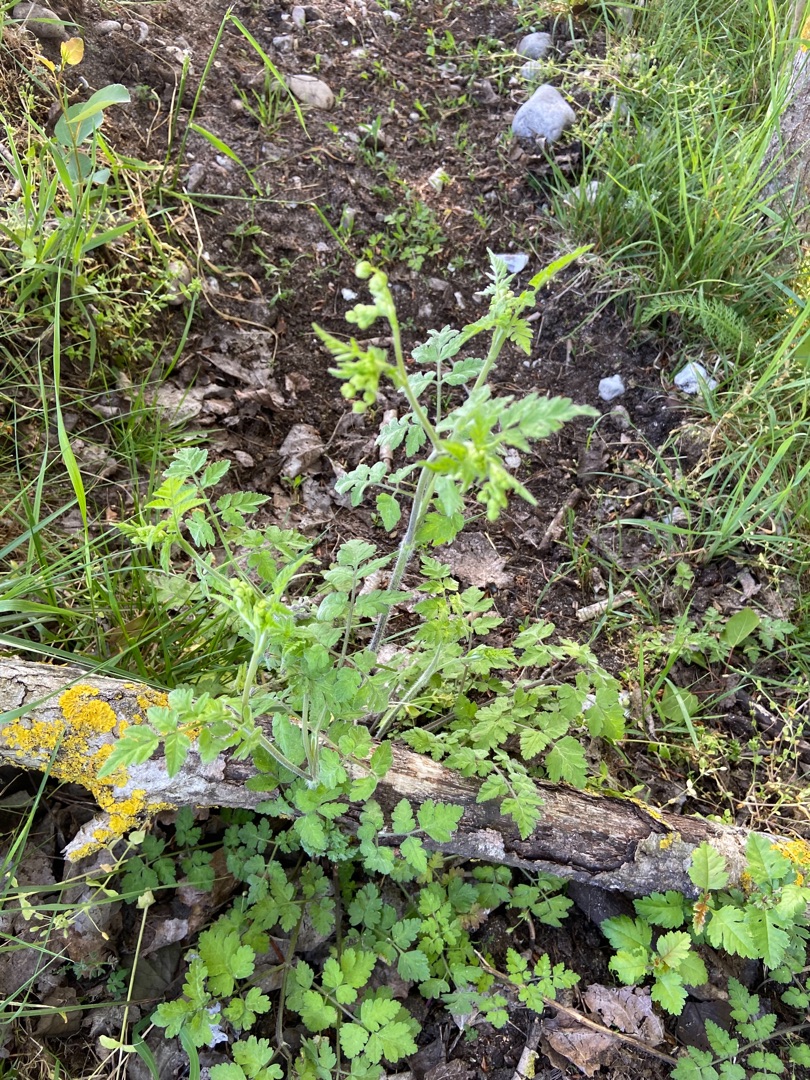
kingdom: Plantae
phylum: Tracheophyta
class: Magnoliopsida
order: Apiales
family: Apiaceae
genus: Chaerophyllum
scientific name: Chaerophyllum temulum
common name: Almindelig hulsvøb
